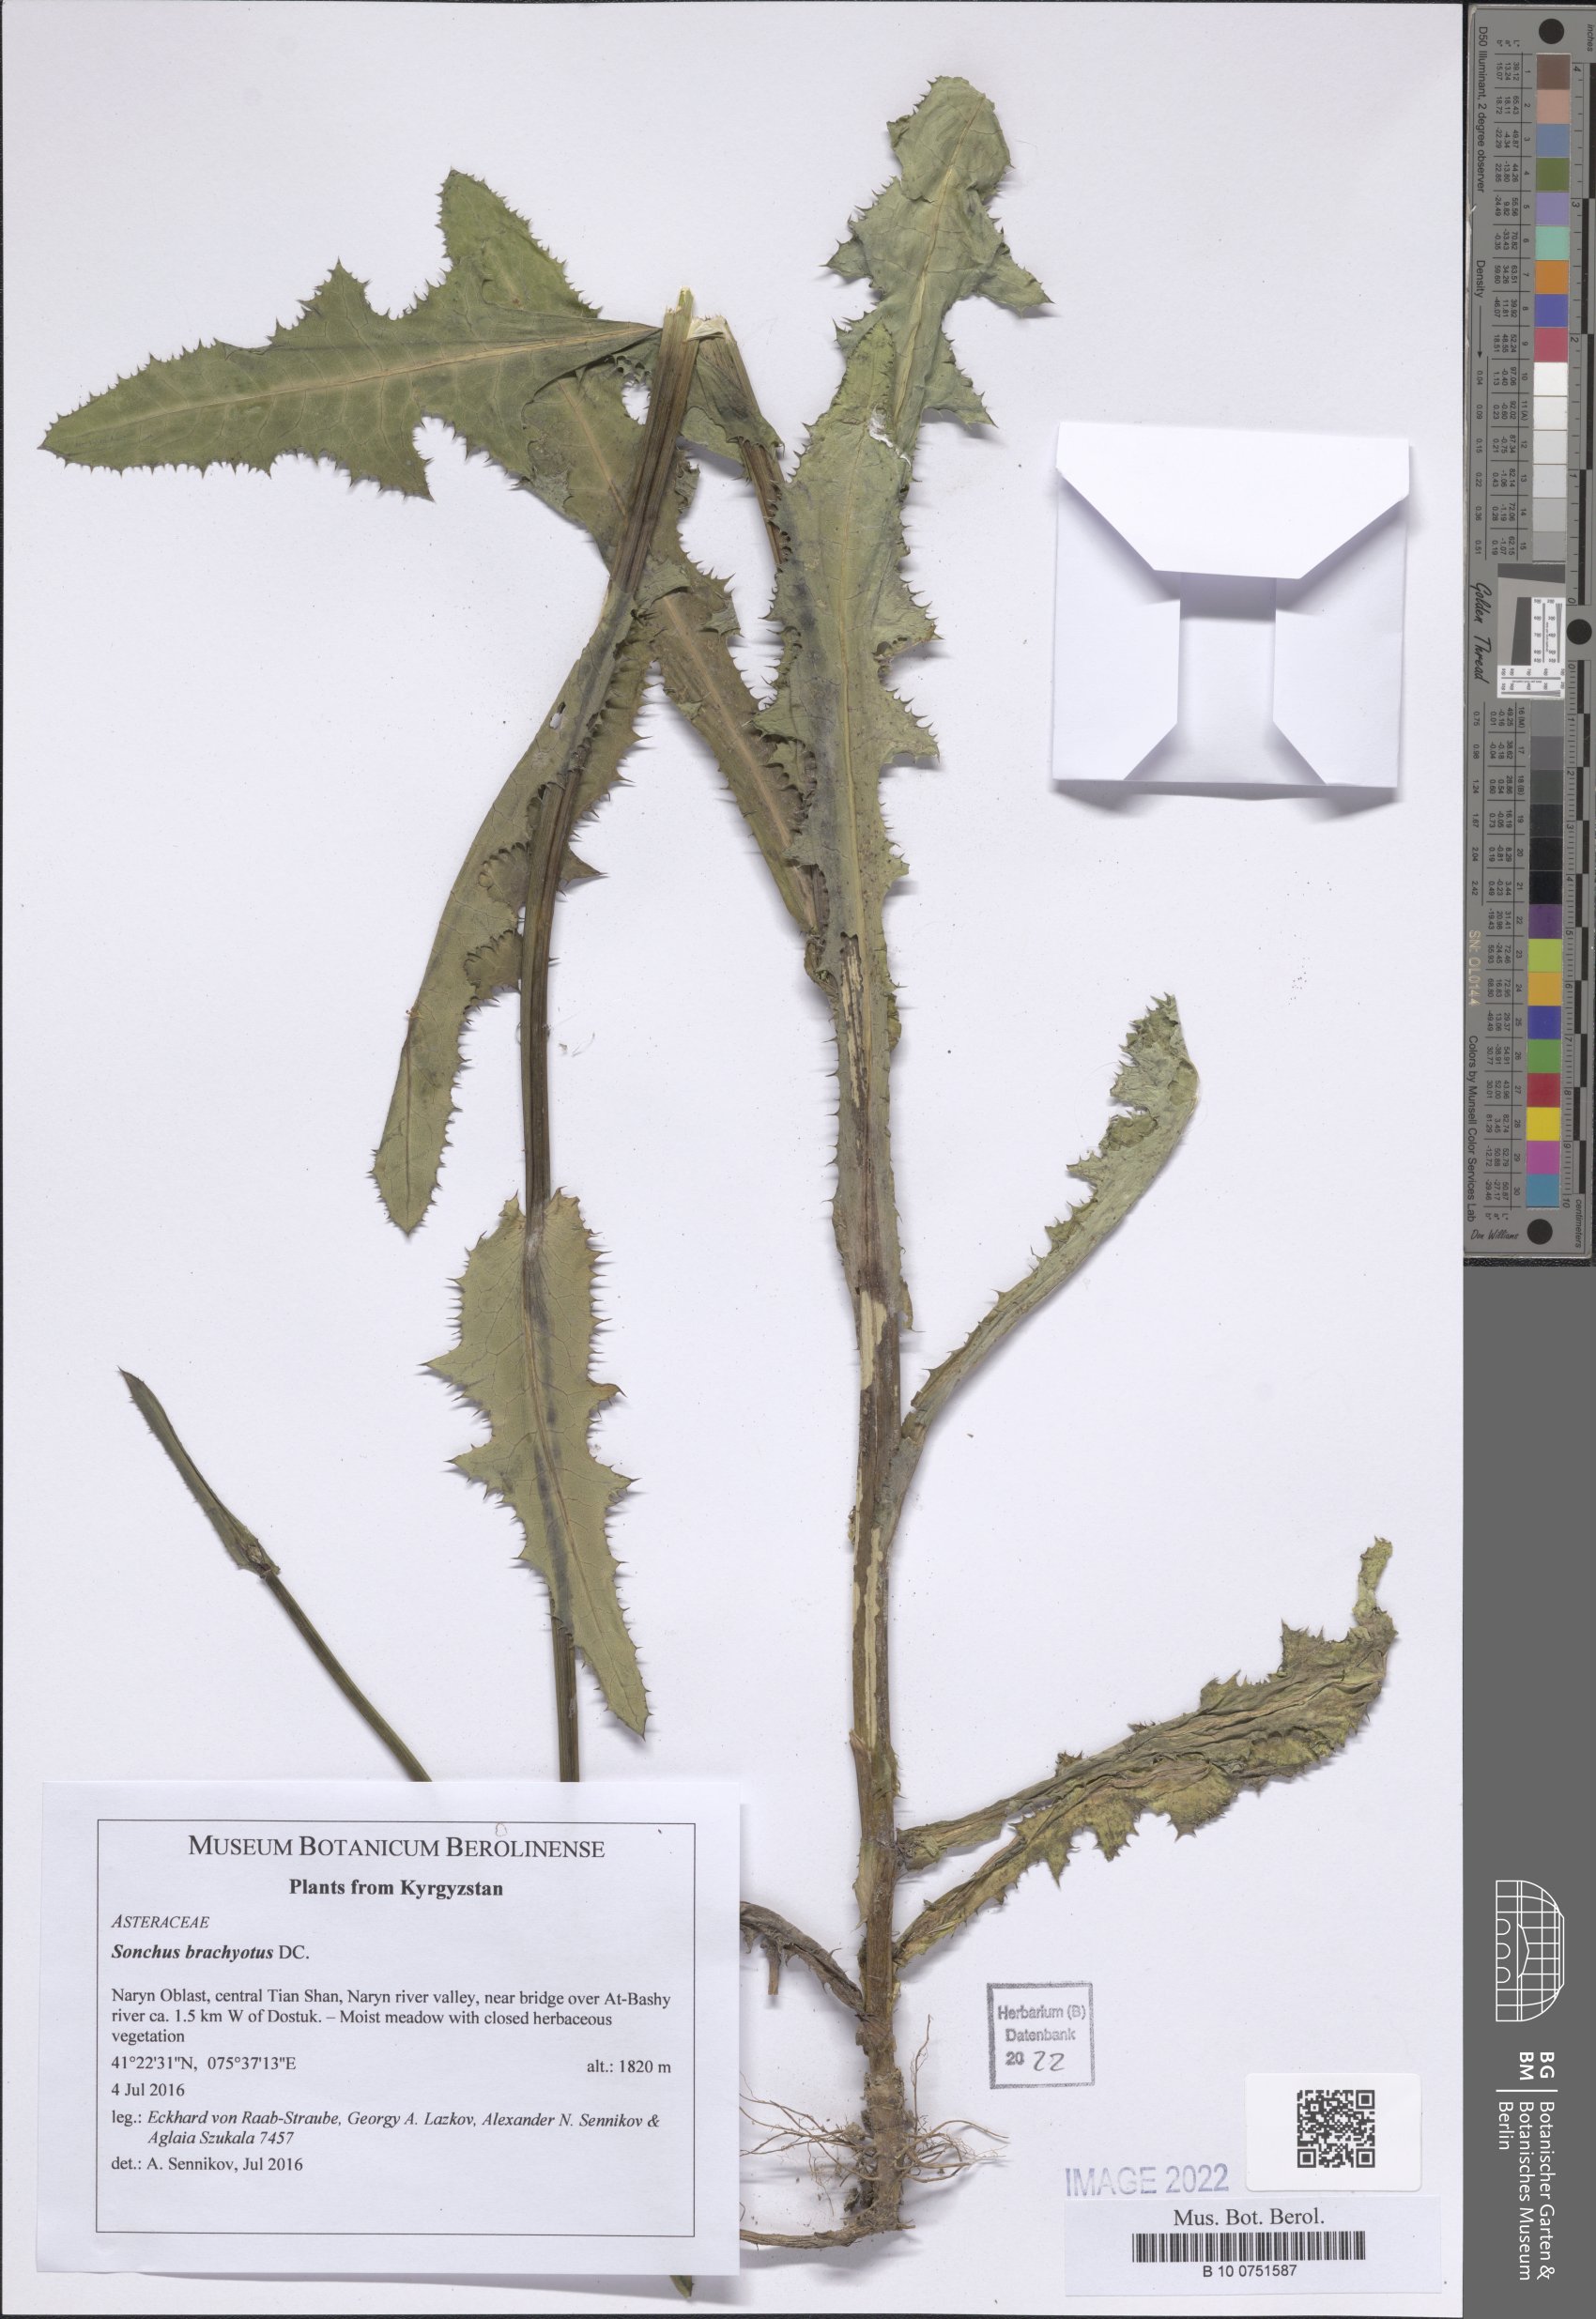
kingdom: Plantae
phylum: Tracheophyta
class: Magnoliopsida
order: Asterales
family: Asteraceae
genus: Sonchus
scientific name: Sonchus brachyotus
